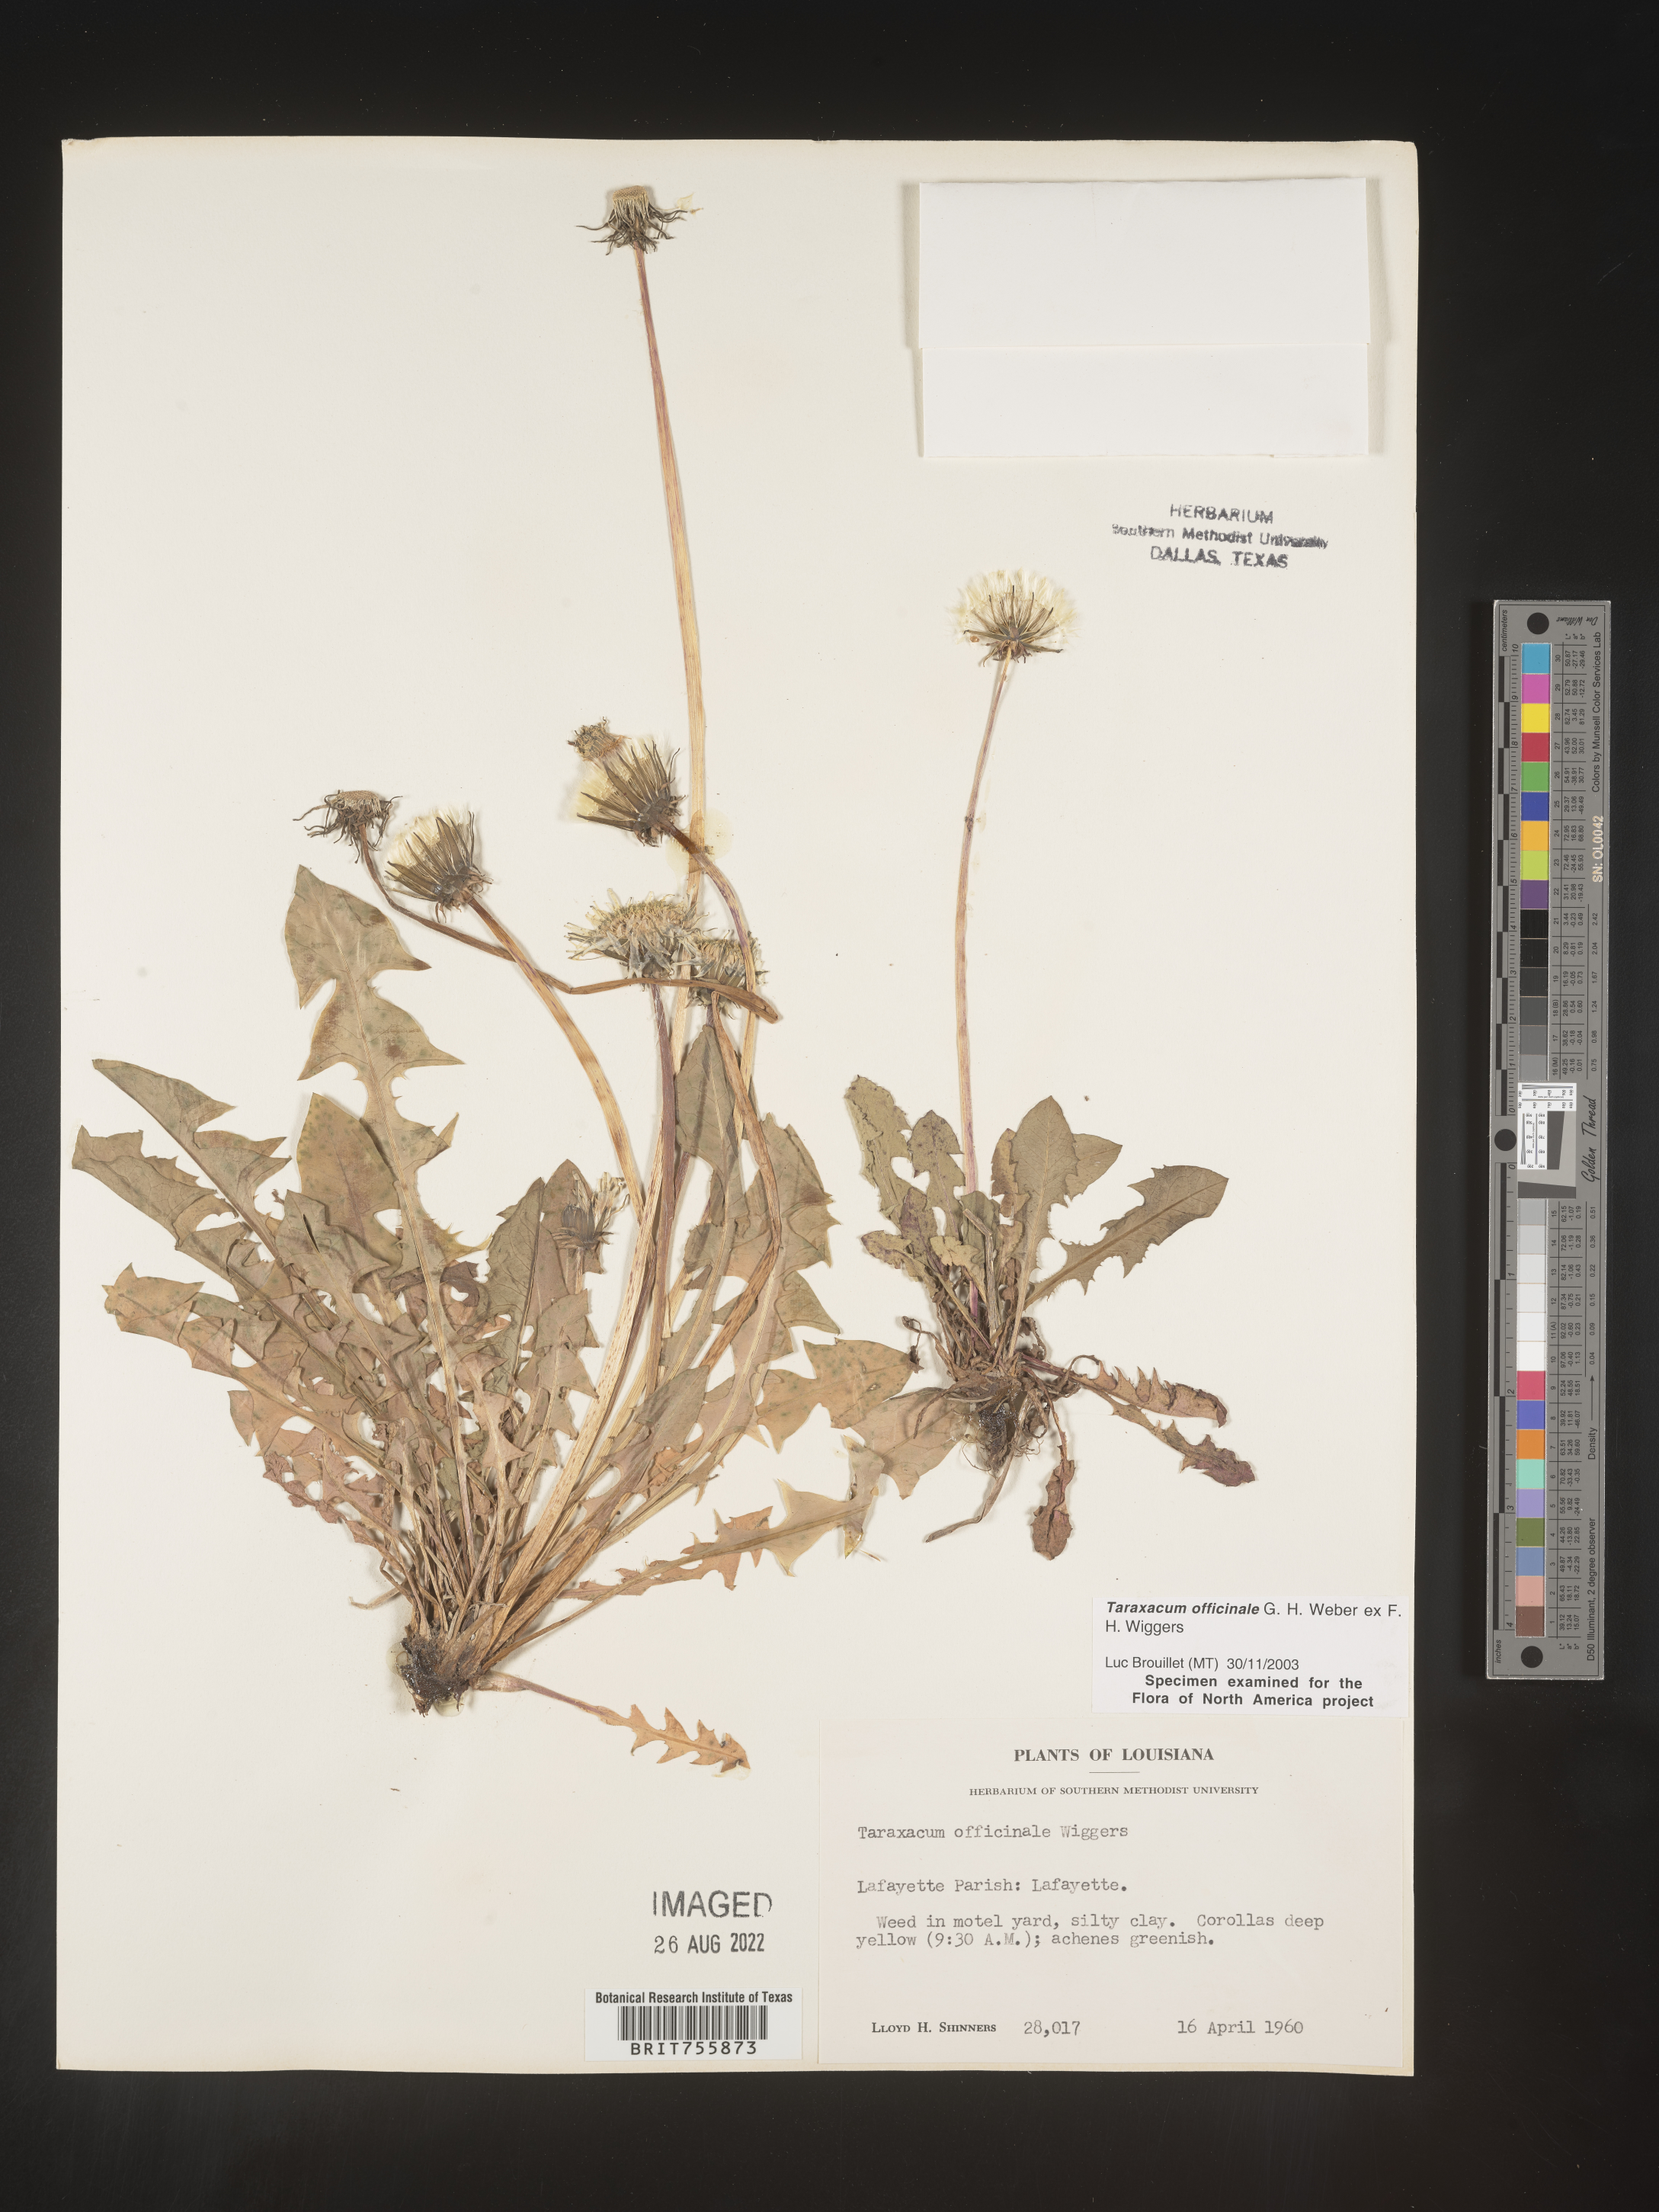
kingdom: Plantae
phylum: Tracheophyta
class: Magnoliopsida
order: Asterales
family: Asteraceae
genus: Taraxacum
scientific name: Taraxacum officinale
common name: Common dandelion
